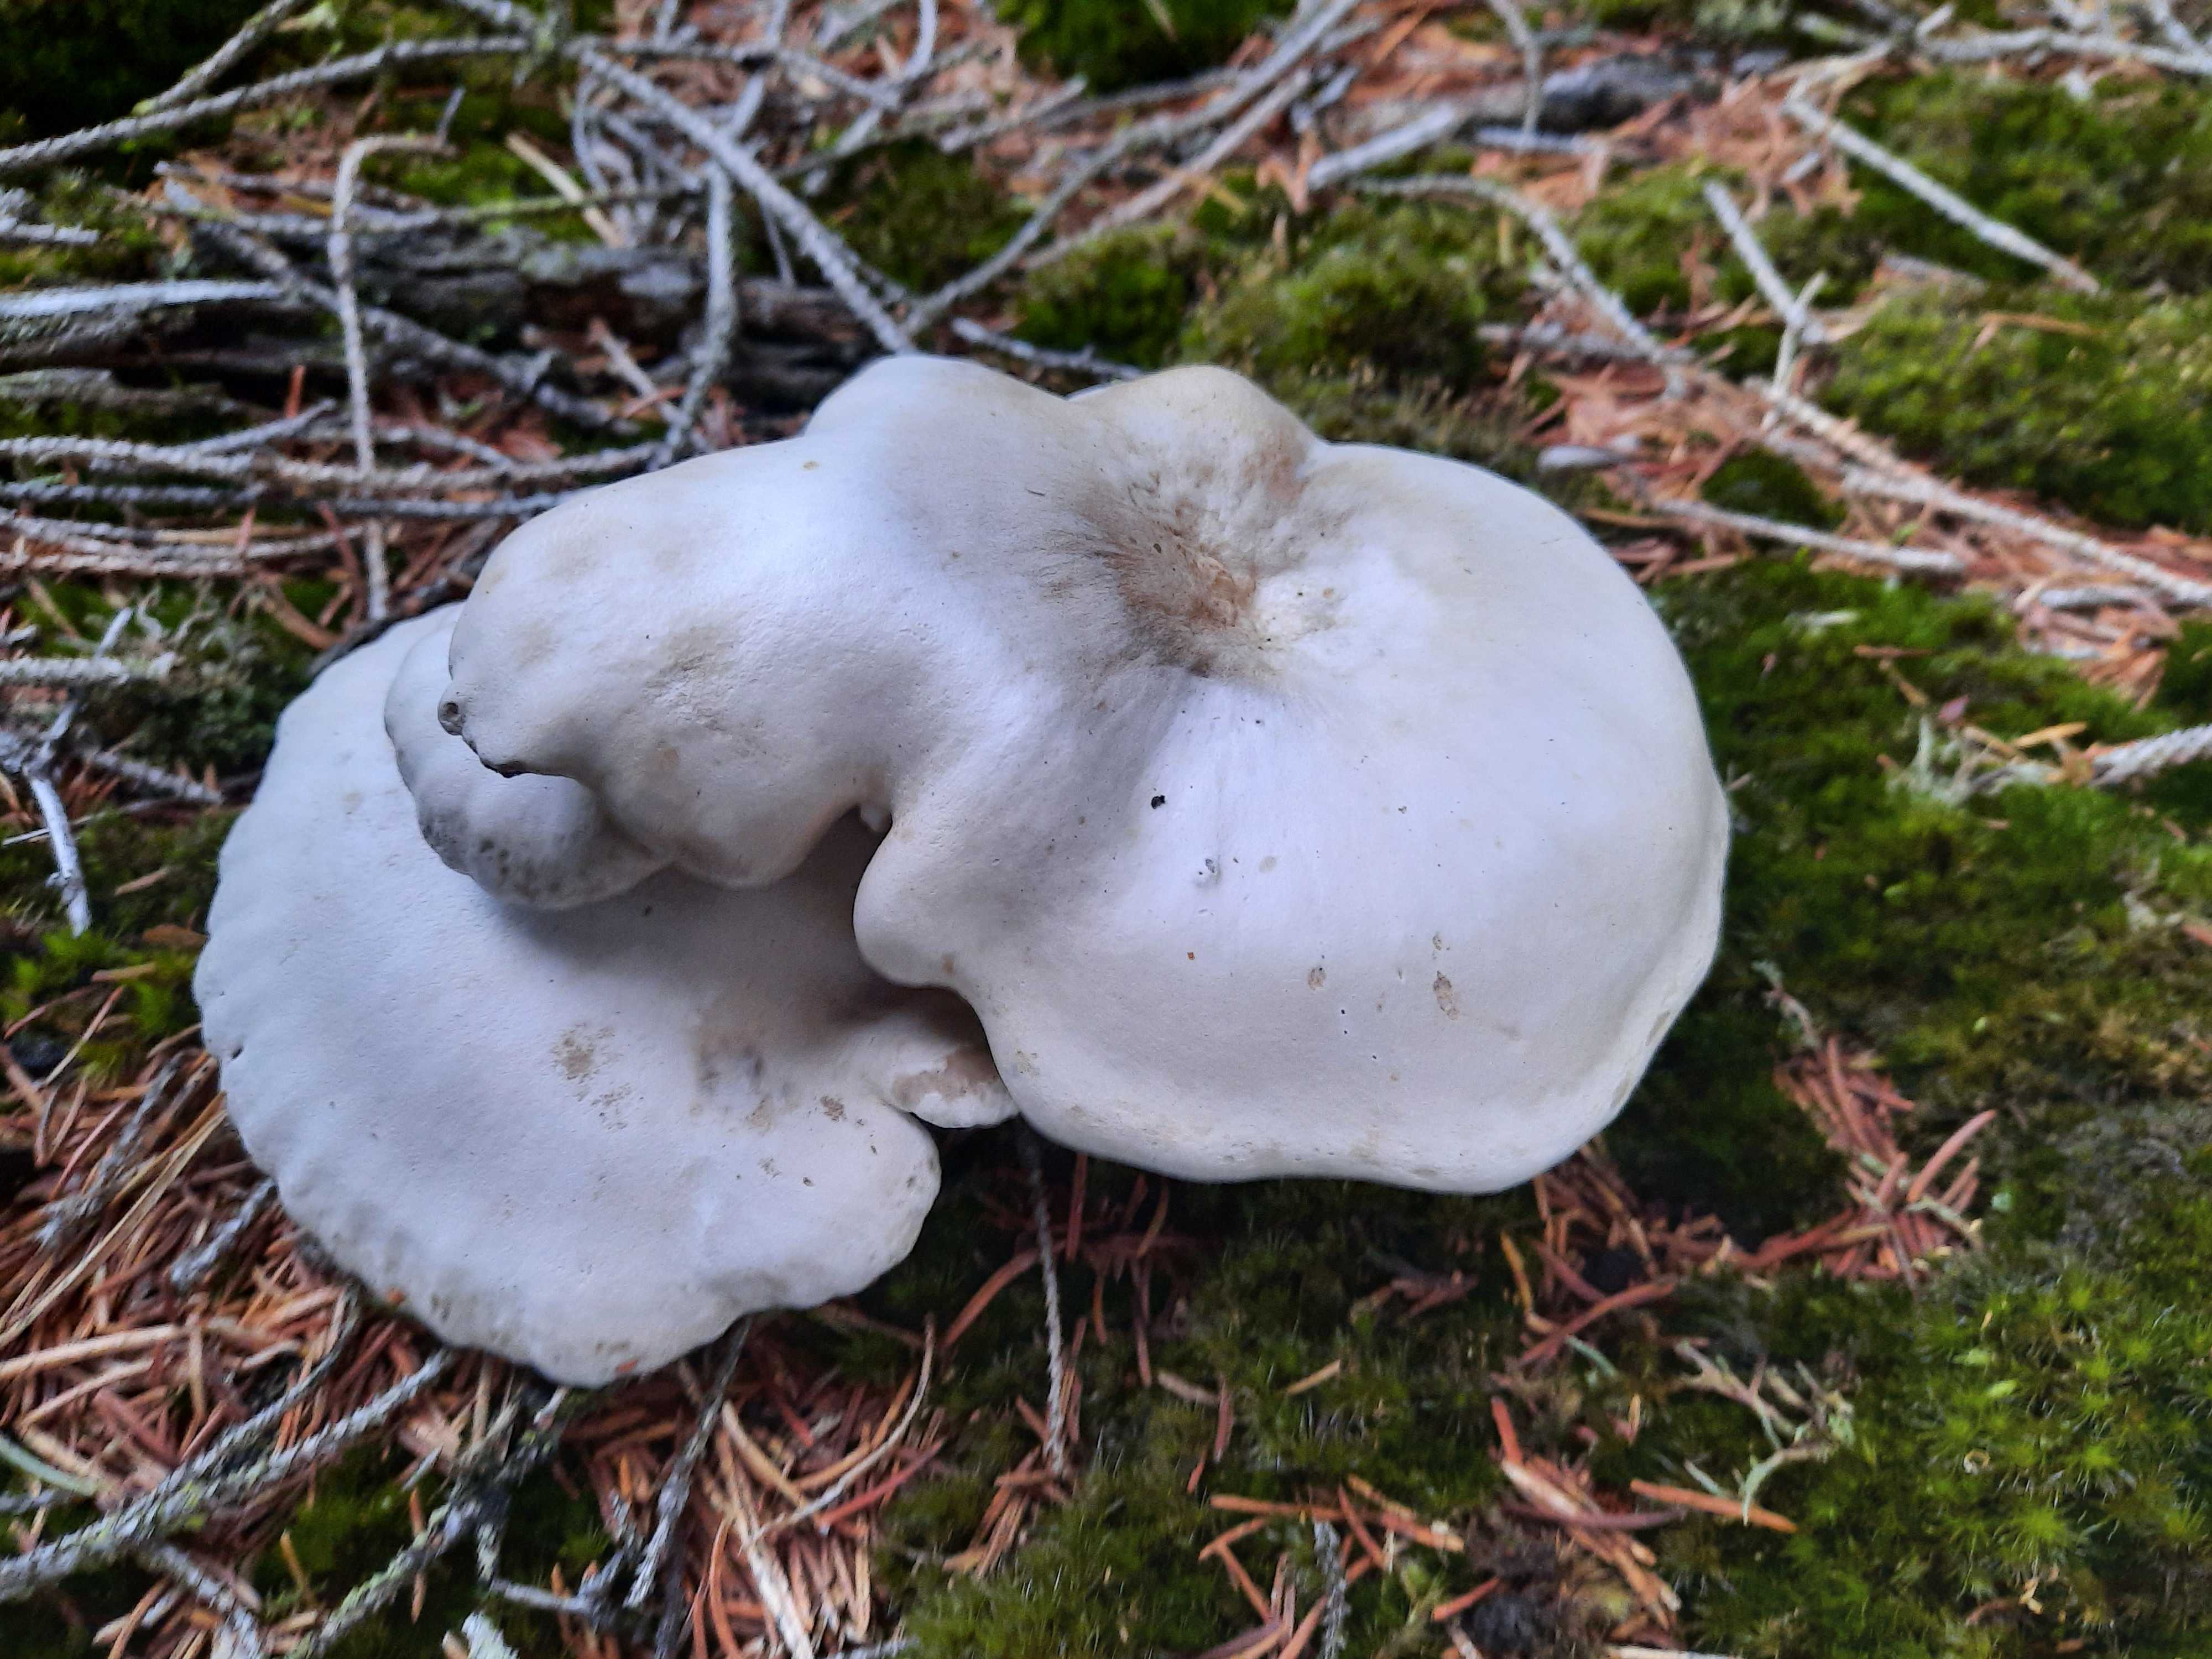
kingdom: Fungi
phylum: Basidiomycota
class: Agaricomycetes
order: Agaricales
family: Entolomataceae
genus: Clitopilus
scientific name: Clitopilus prunulus
